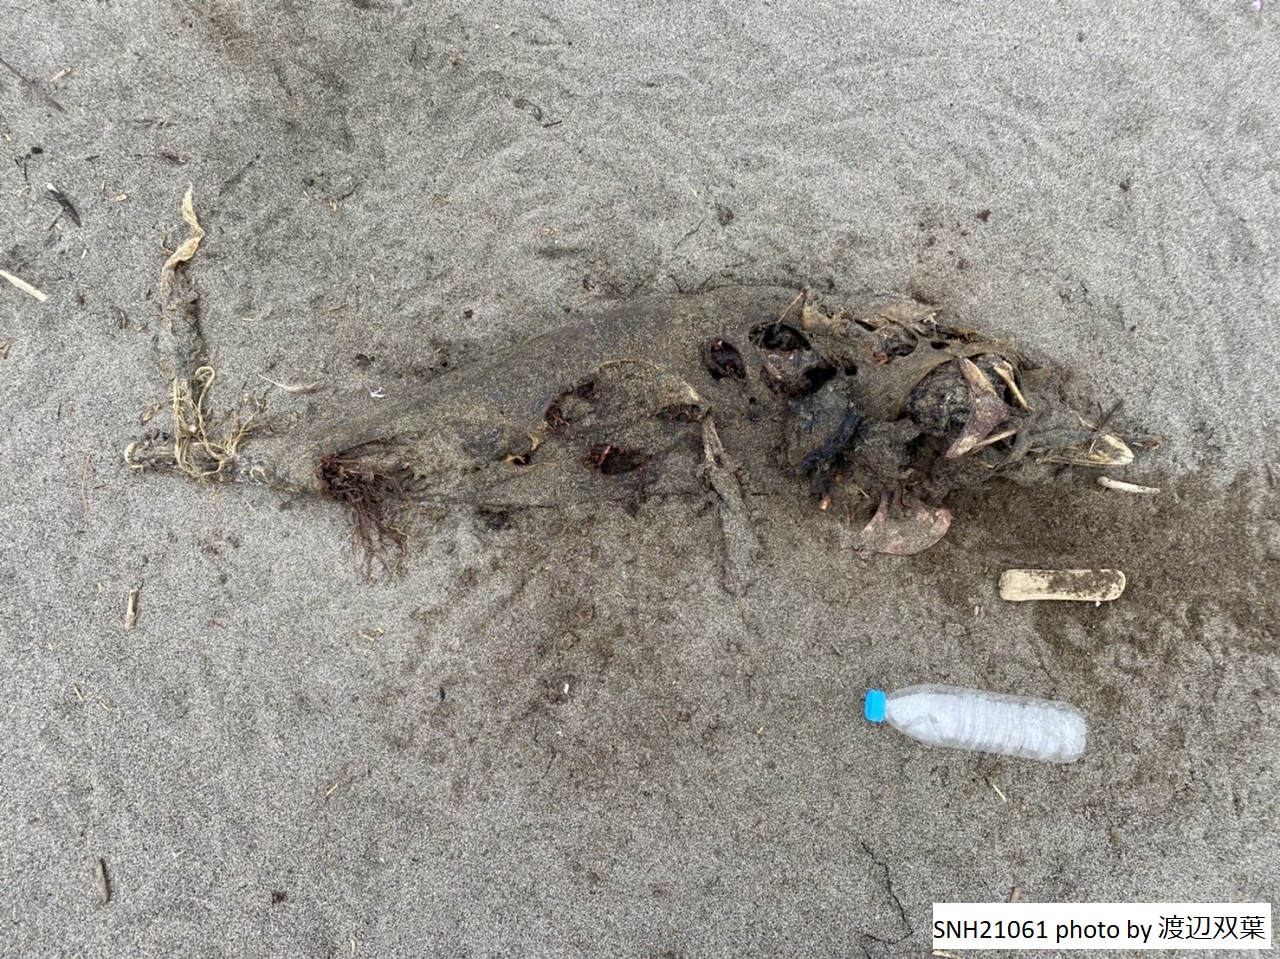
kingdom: Animalia
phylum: Chordata
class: Mammalia
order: Cetacea
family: Phocoenidae
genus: Phocoena
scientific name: Phocoena phocoena
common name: Harbour porpoise
